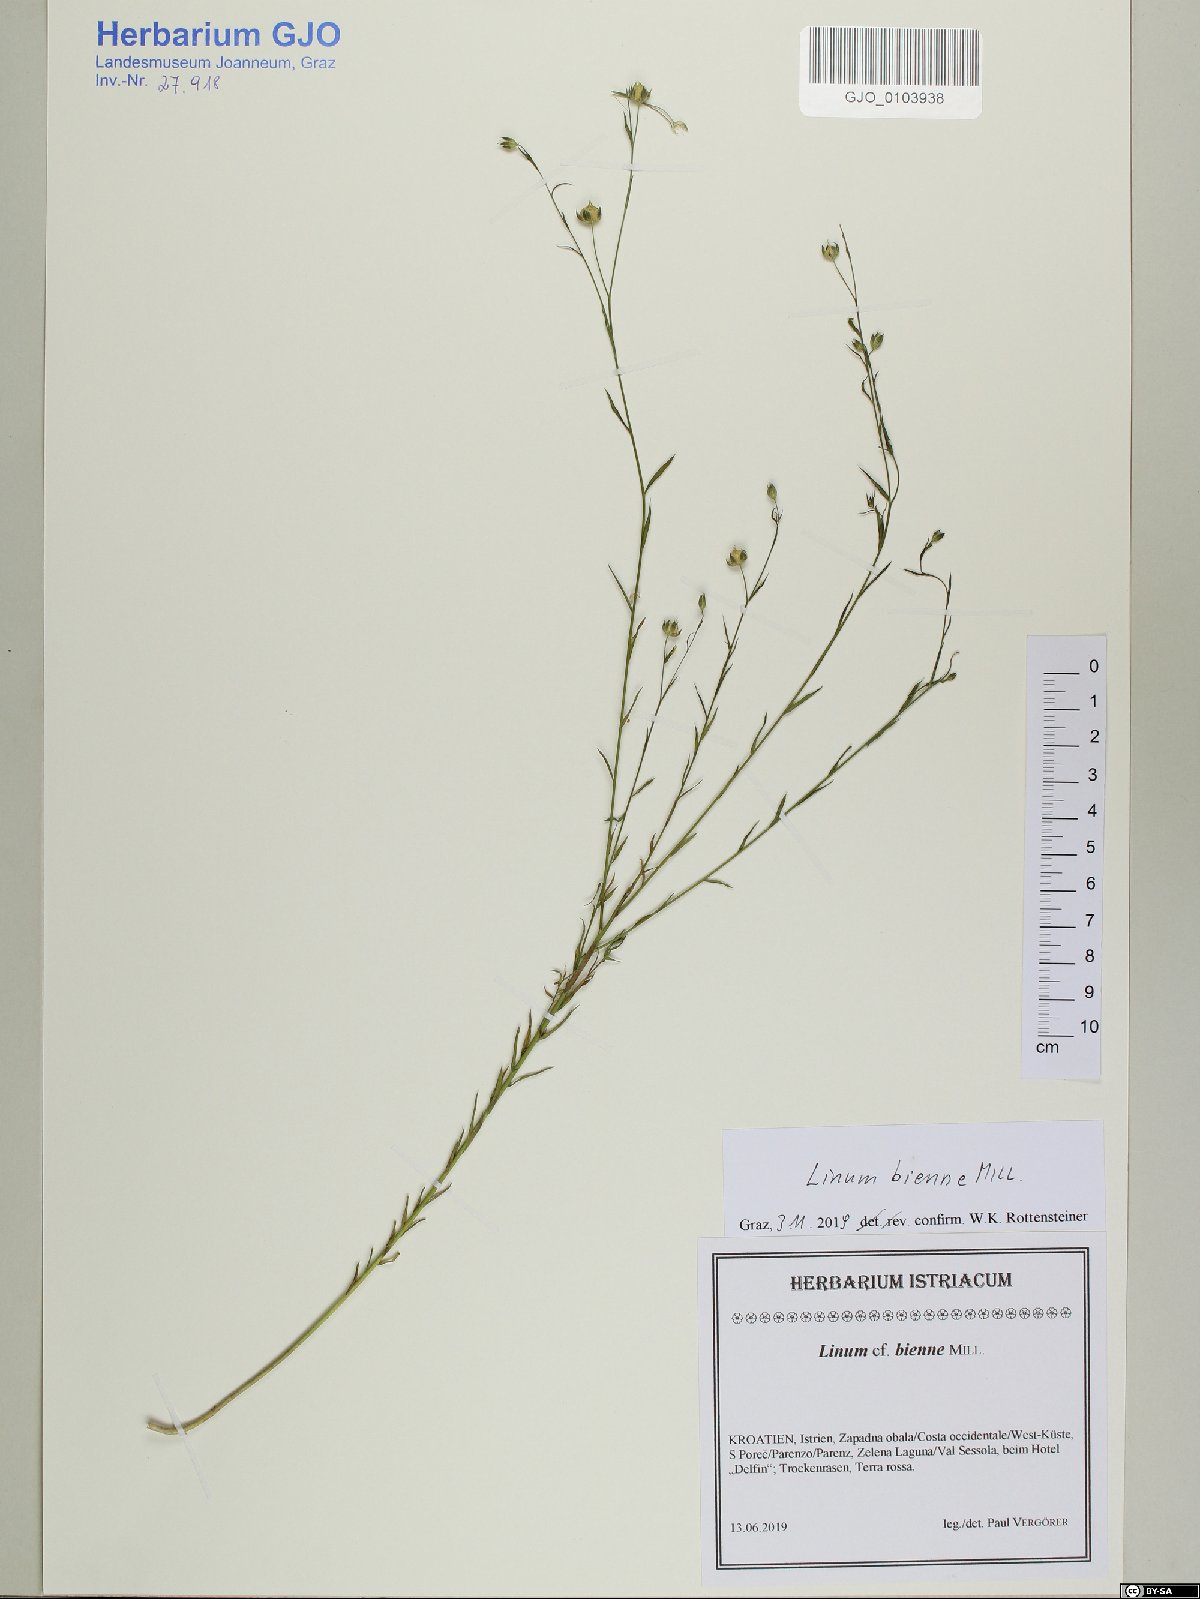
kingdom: Plantae
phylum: Tracheophyta
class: Magnoliopsida
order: Malpighiales
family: Linaceae
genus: Linum
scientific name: Linum bienne
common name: Pale flax
